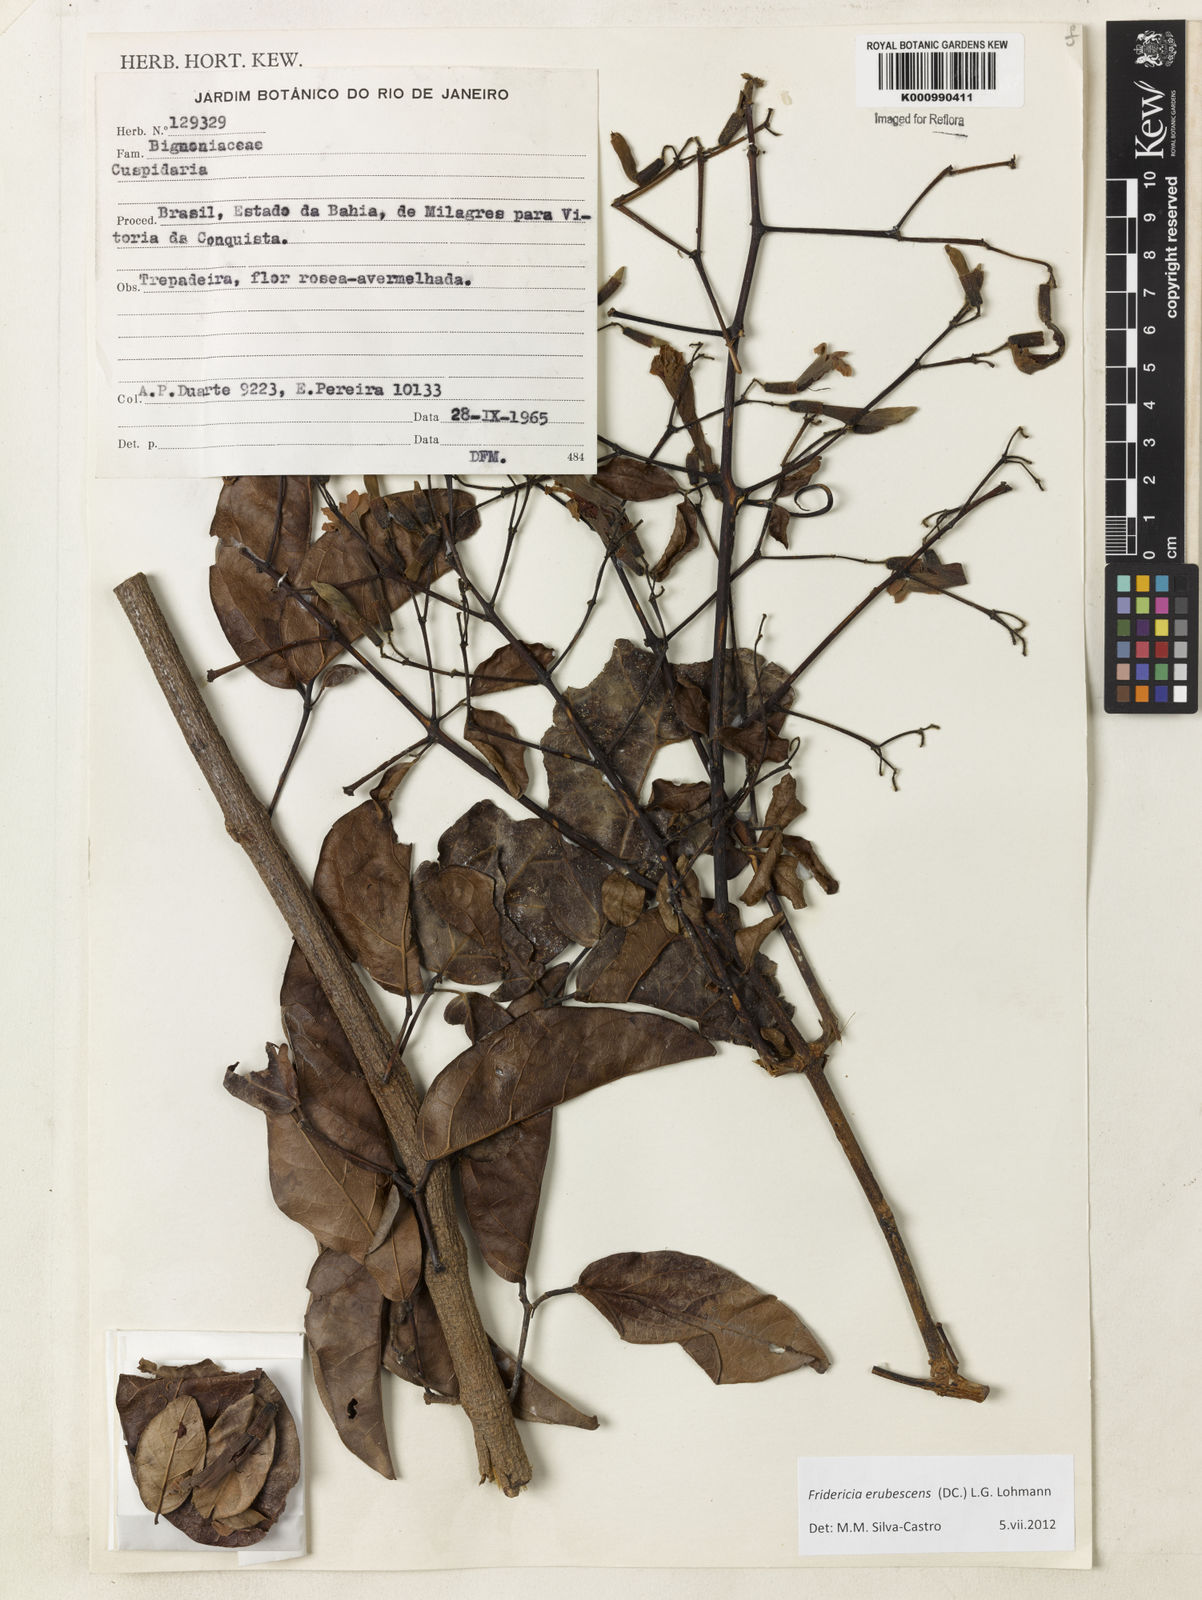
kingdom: Plantae
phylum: Tracheophyta
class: Magnoliopsida
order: Lamiales
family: Bignoniaceae
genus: Fridericia
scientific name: Fridericia erubescens
